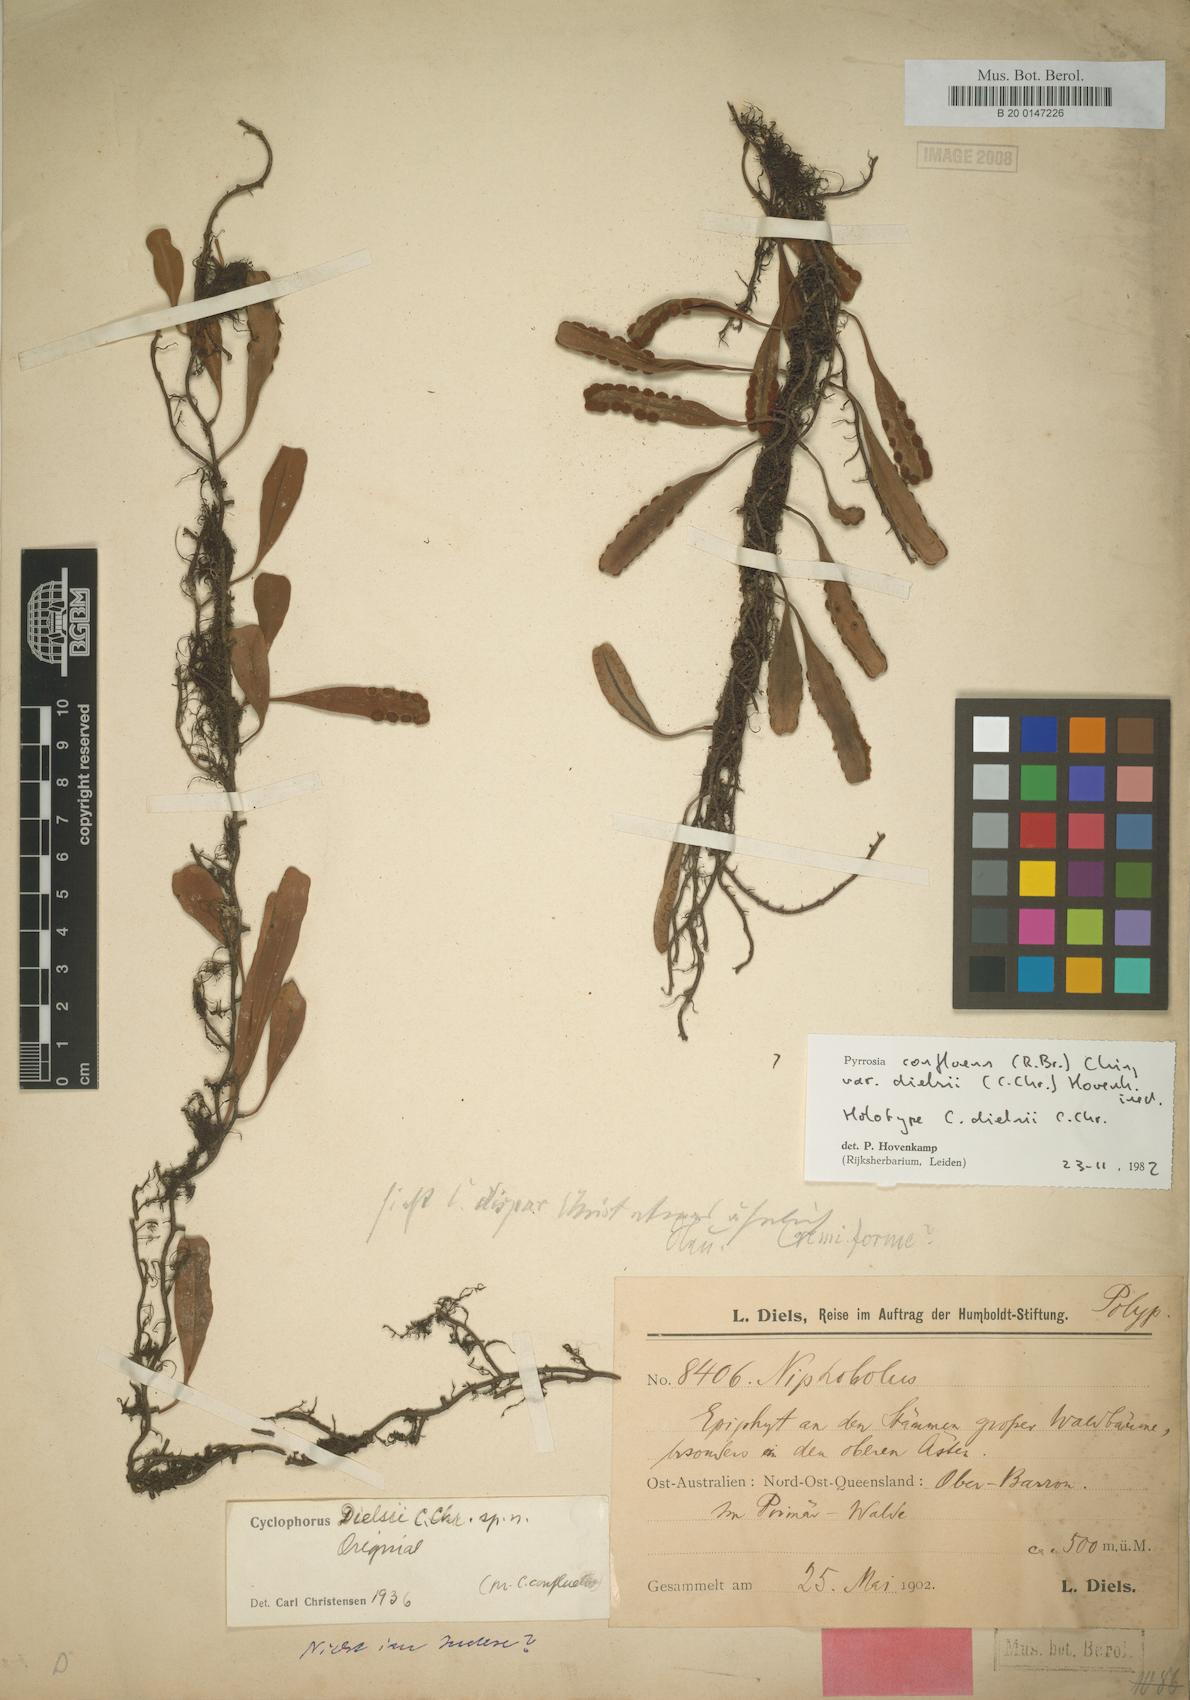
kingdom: Plantae
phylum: Tracheophyta
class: Polypodiopsida
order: Polypodiales
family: Polypodiaceae
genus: Pyrrosia
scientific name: Pyrrosia confluens
